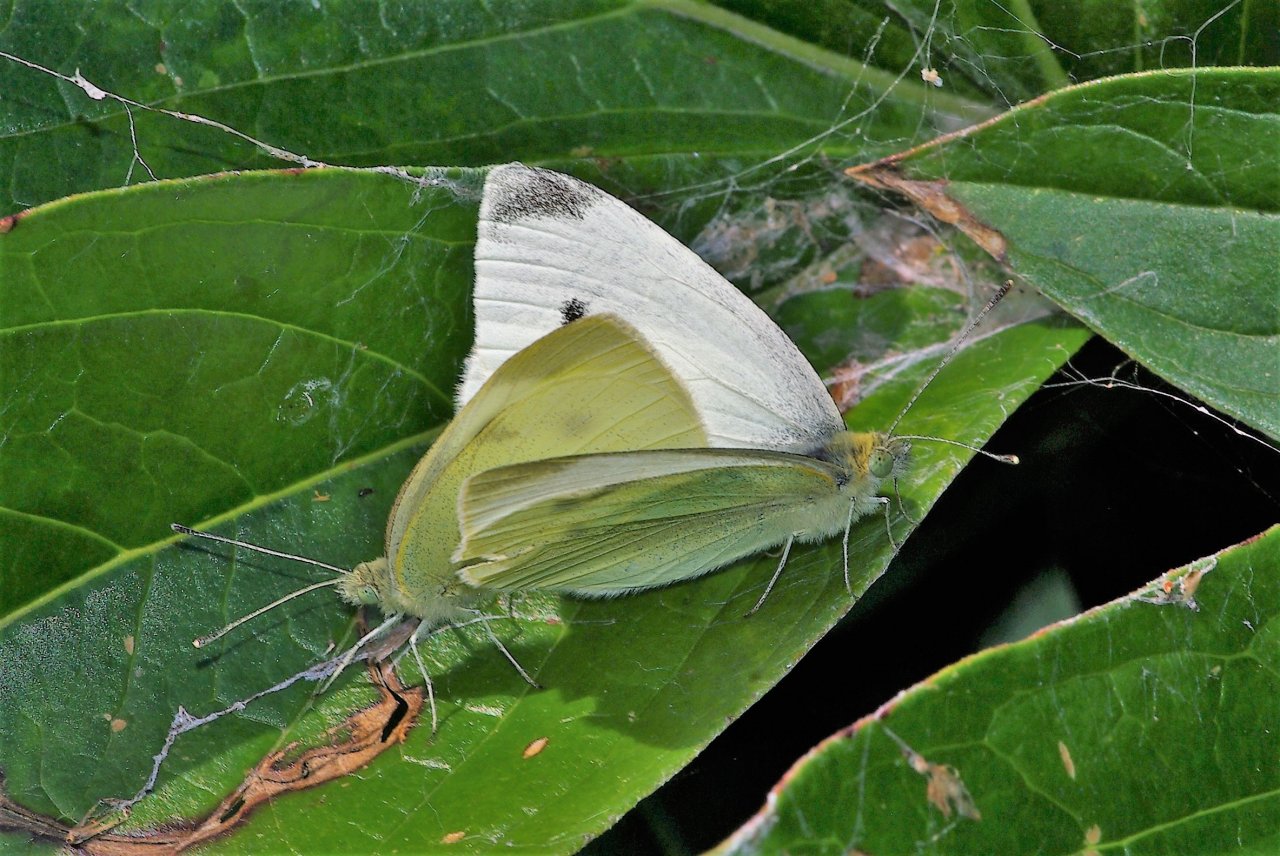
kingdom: Animalia
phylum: Arthropoda
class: Insecta
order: Lepidoptera
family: Pieridae
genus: Pieris
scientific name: Pieris rapae
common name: Cabbage White
